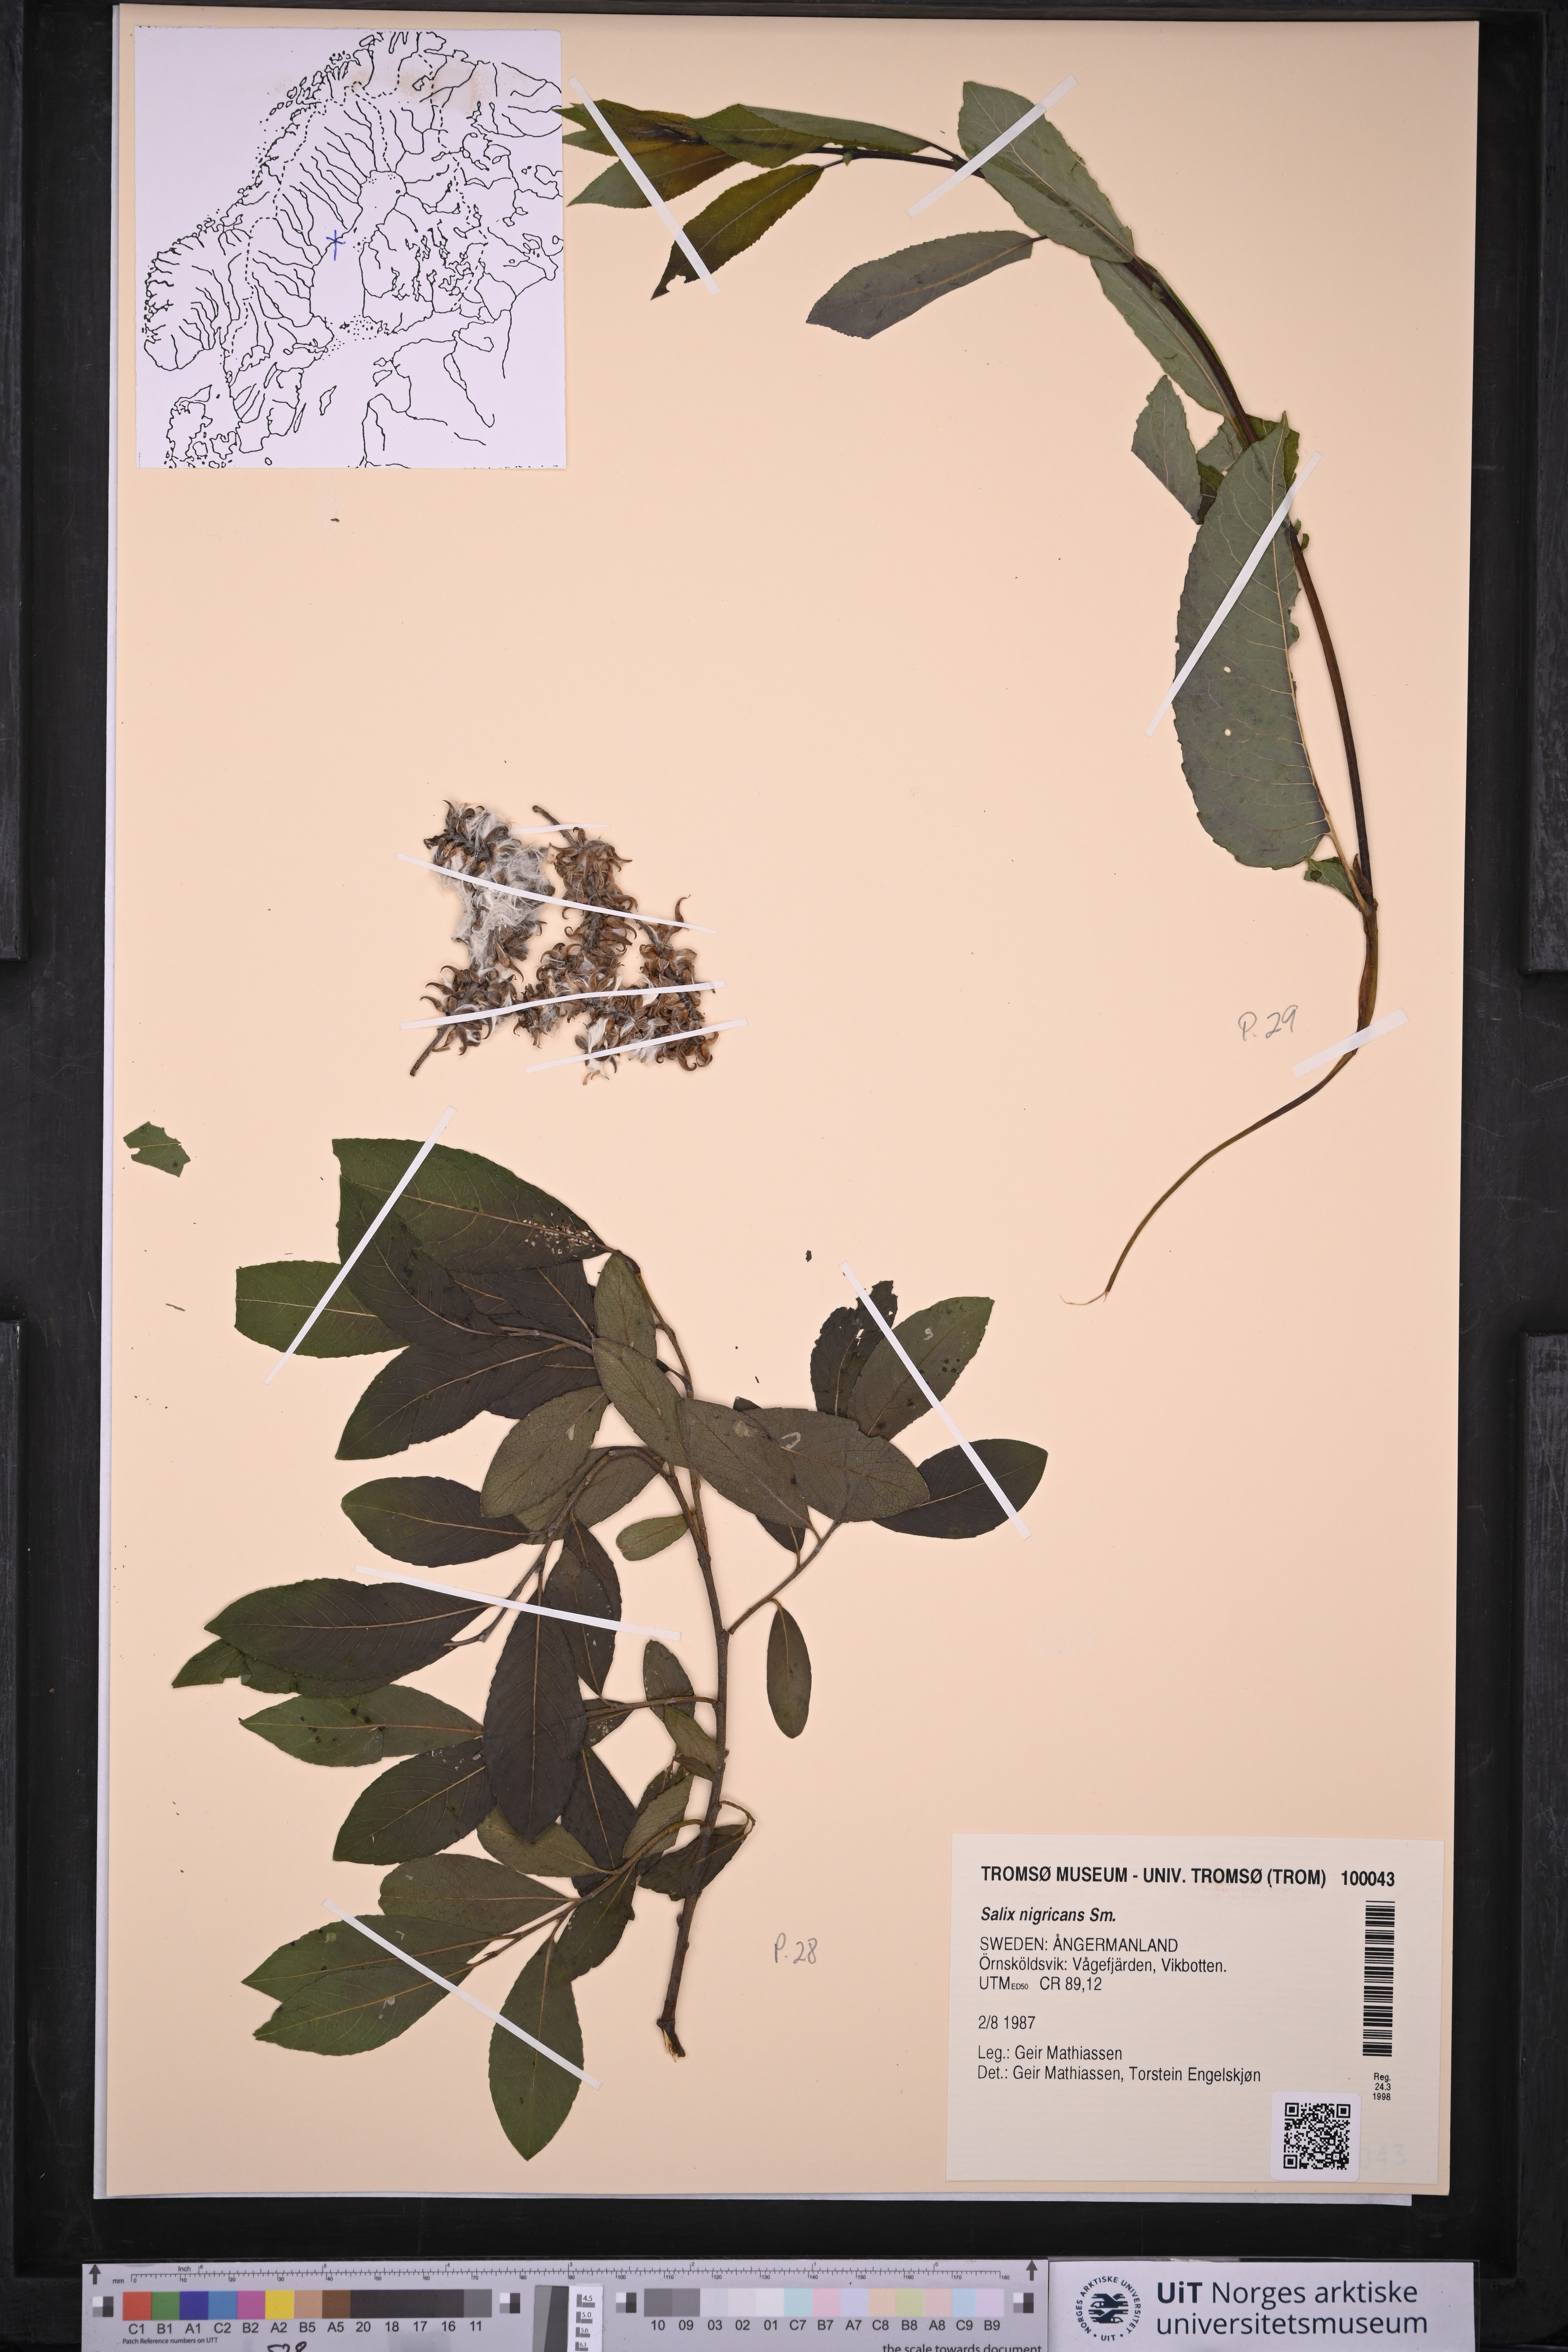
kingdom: Plantae
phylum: Tracheophyta
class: Magnoliopsida
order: Malpighiales
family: Salicaceae
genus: Salix
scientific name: Salix myrsinifolia
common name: Dark-leaved willow
